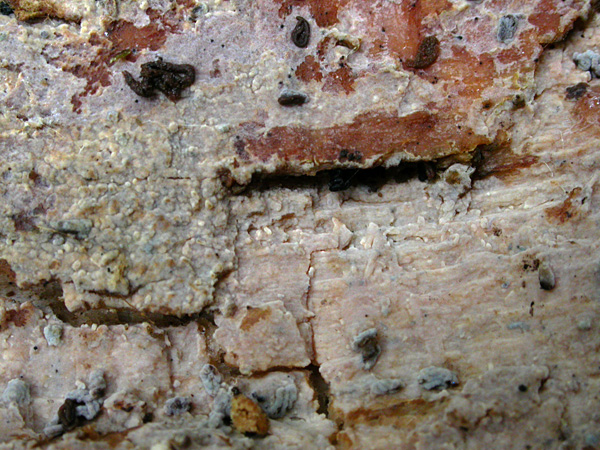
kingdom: Fungi
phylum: Basidiomycota
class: Agaricomycetes
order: Auriculariales
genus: Endoperplexa
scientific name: Endoperplexa dartmorica
